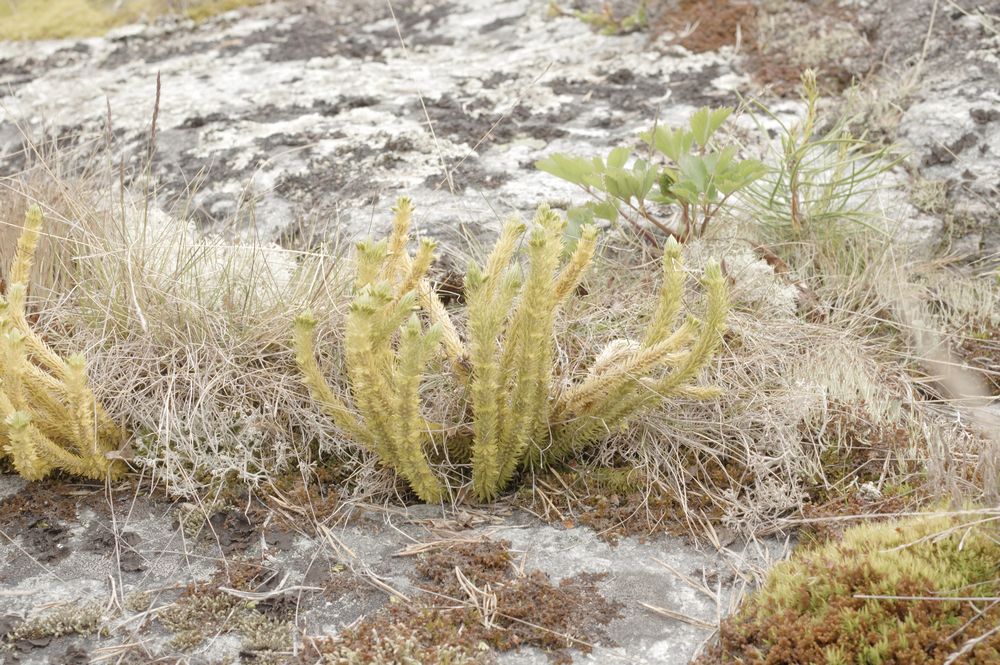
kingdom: Plantae
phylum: Tracheophyta
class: Lycopodiopsida
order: Lycopodiales
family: Lycopodiaceae
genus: Huperzia
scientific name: Huperzia selago
